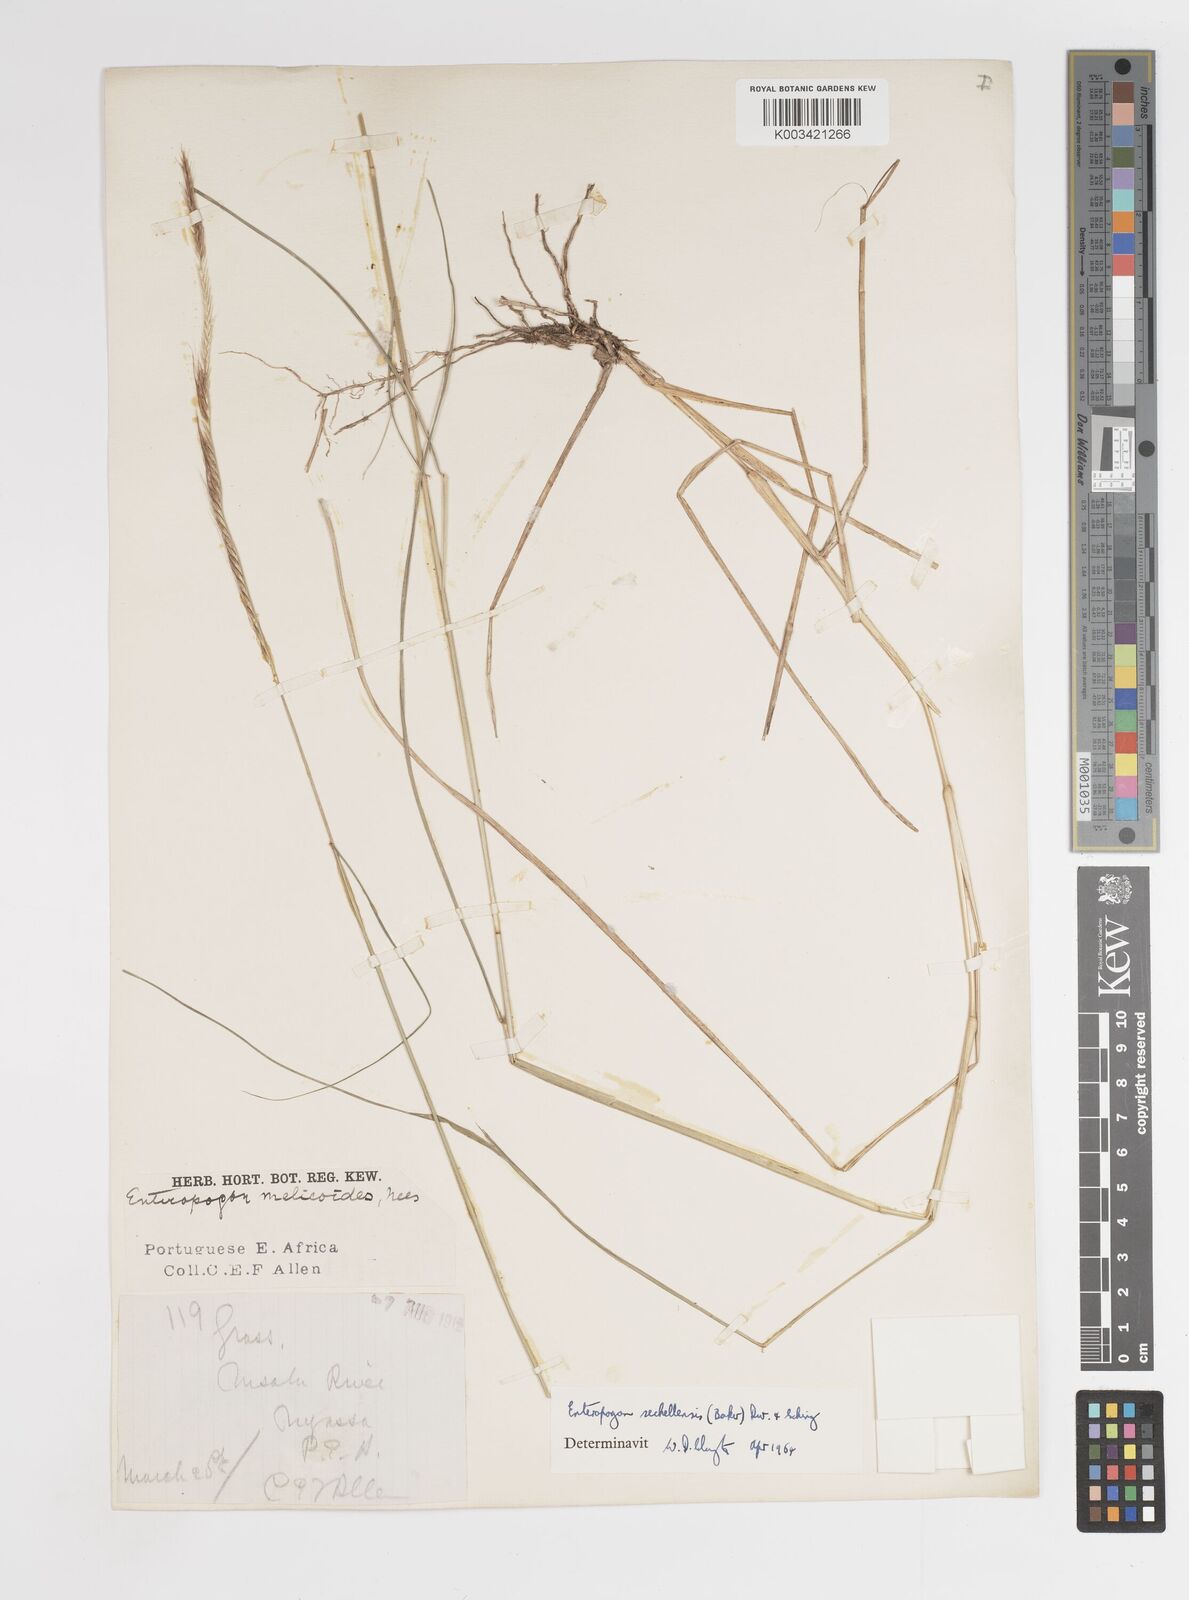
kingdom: Plantae
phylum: Tracheophyta
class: Liliopsida
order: Poales
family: Poaceae
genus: Enteropogon
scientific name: Enteropogon sechellensis
